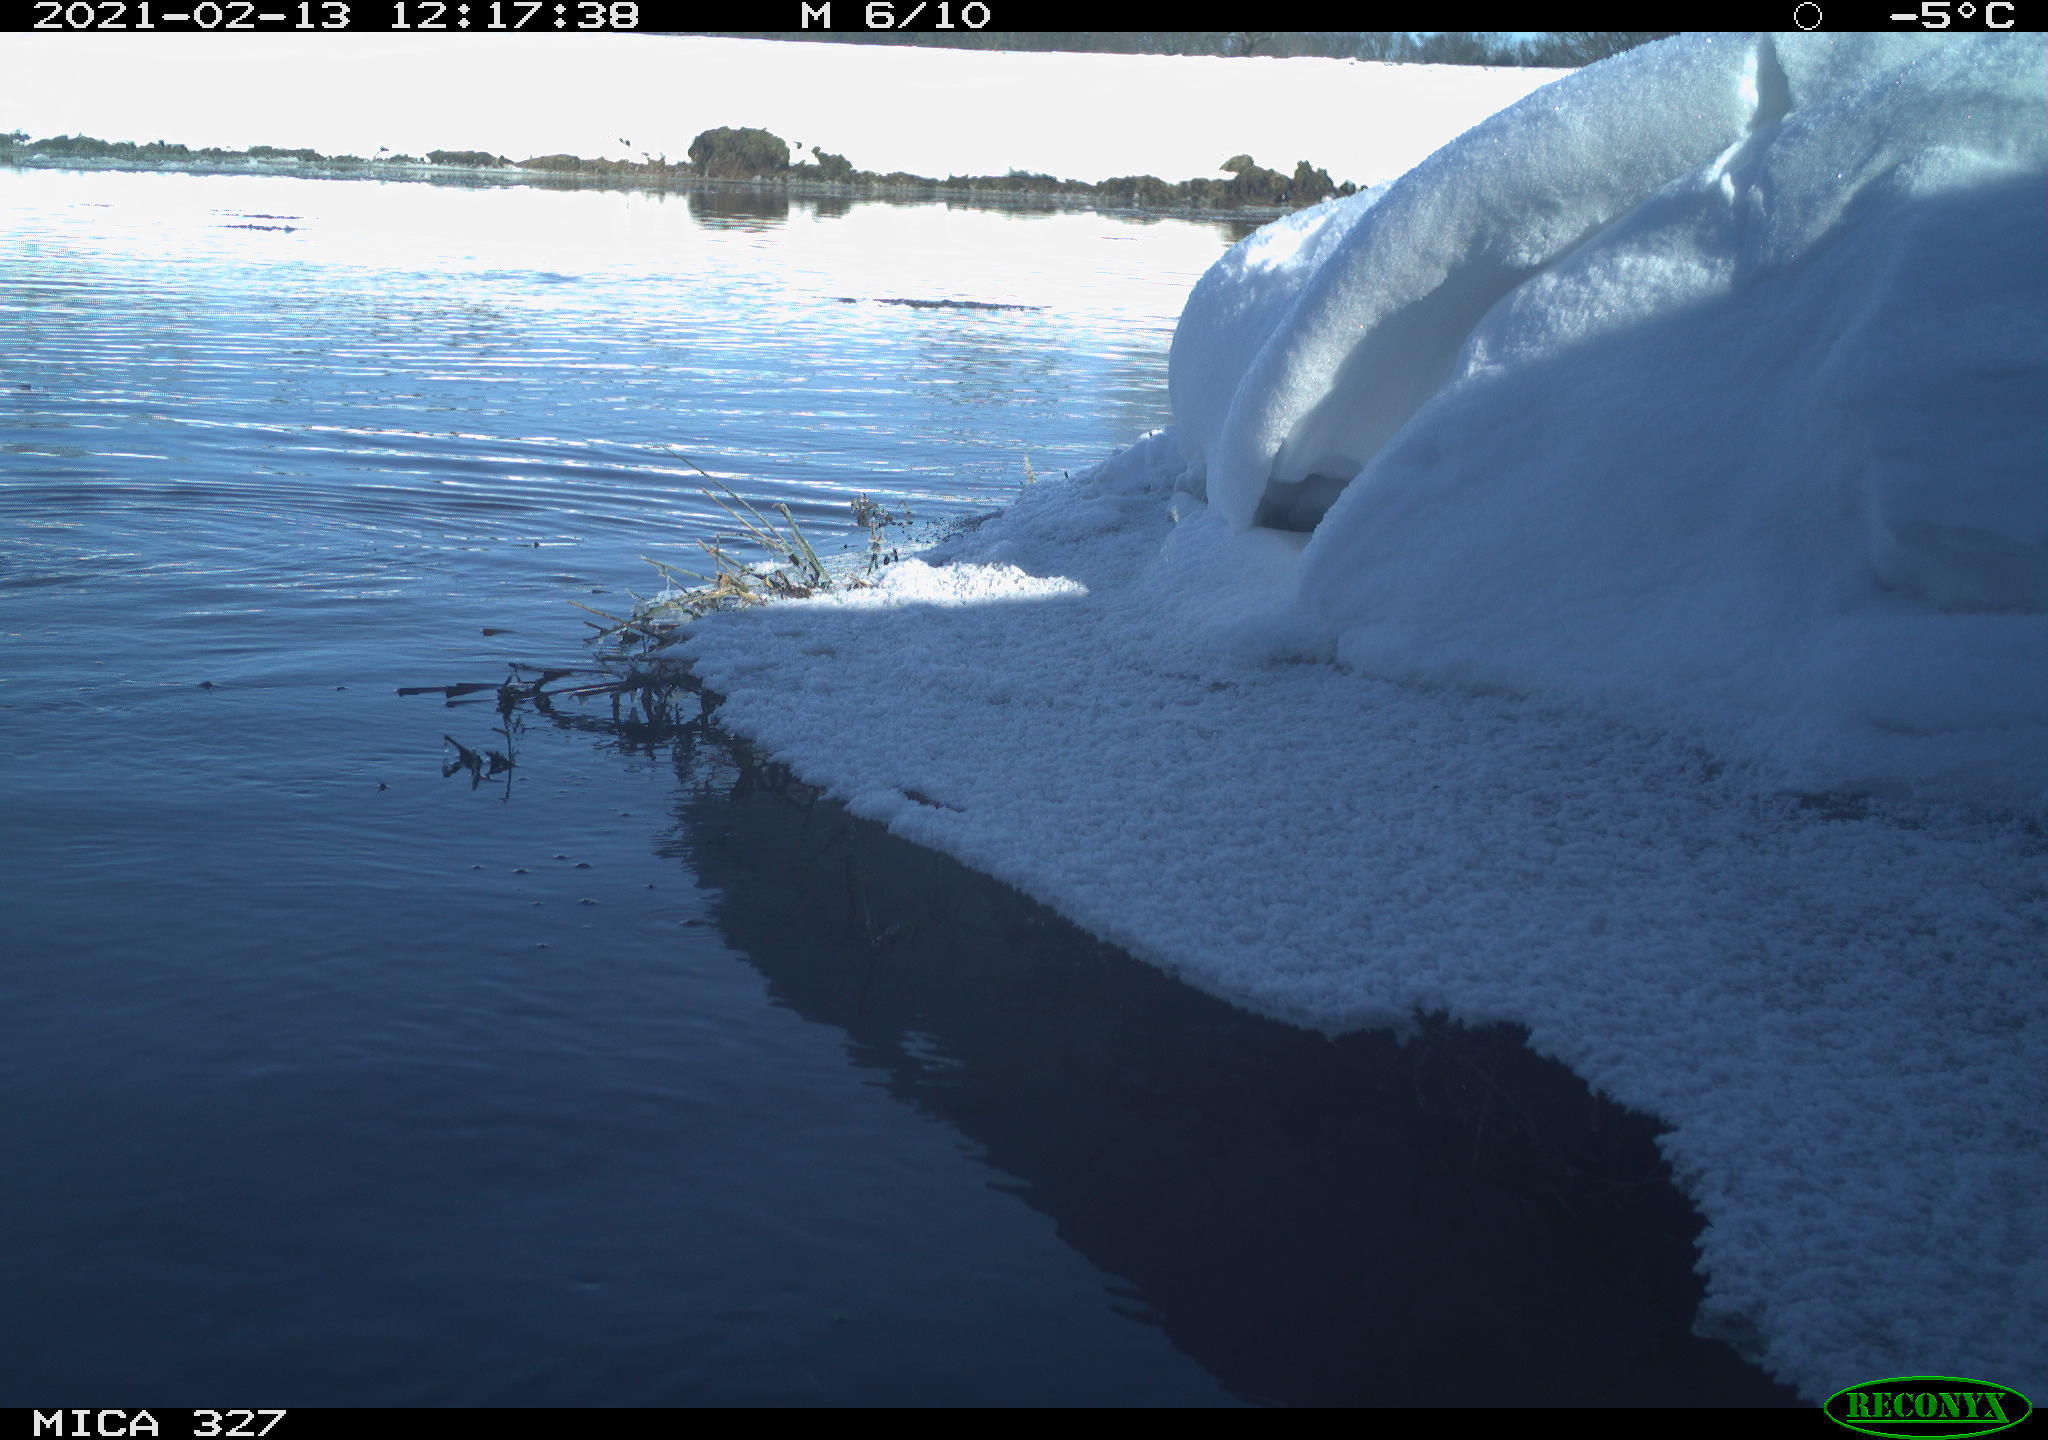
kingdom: Animalia
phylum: Chordata
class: Aves
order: Suliformes
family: Phalacrocoracidae
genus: Phalacrocorax
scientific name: Phalacrocorax carbo
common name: Great cormorant
